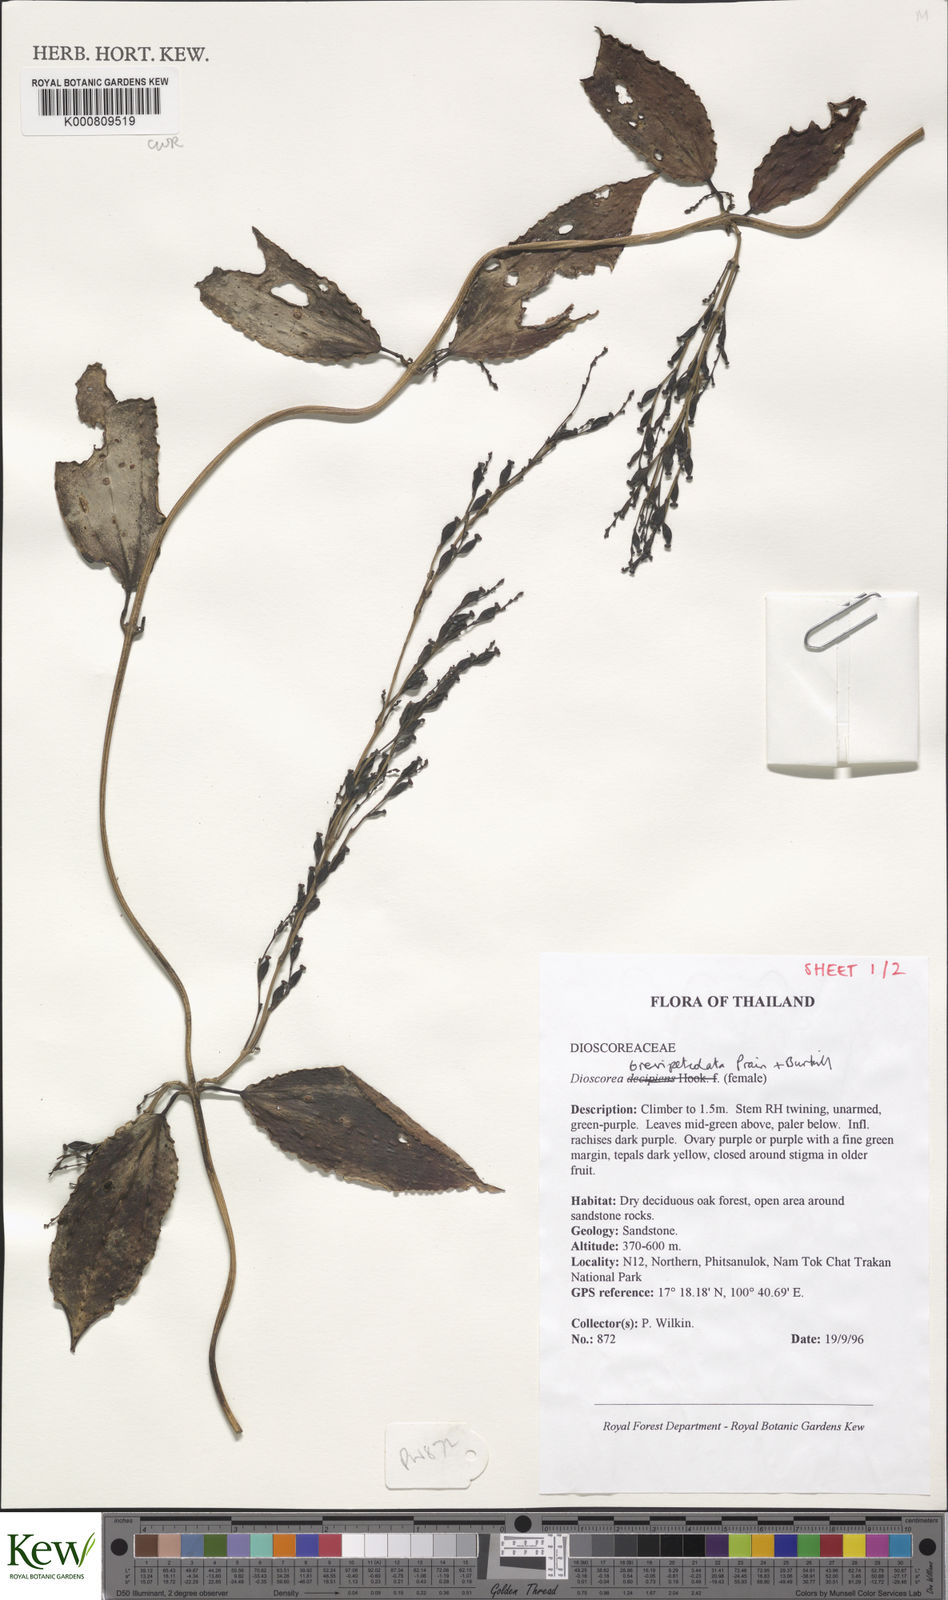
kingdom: Plantae
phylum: Tracheophyta
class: Liliopsida
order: Dioscoreales
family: Dioscoreaceae
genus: Dioscorea
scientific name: Dioscorea brevipetiolata
